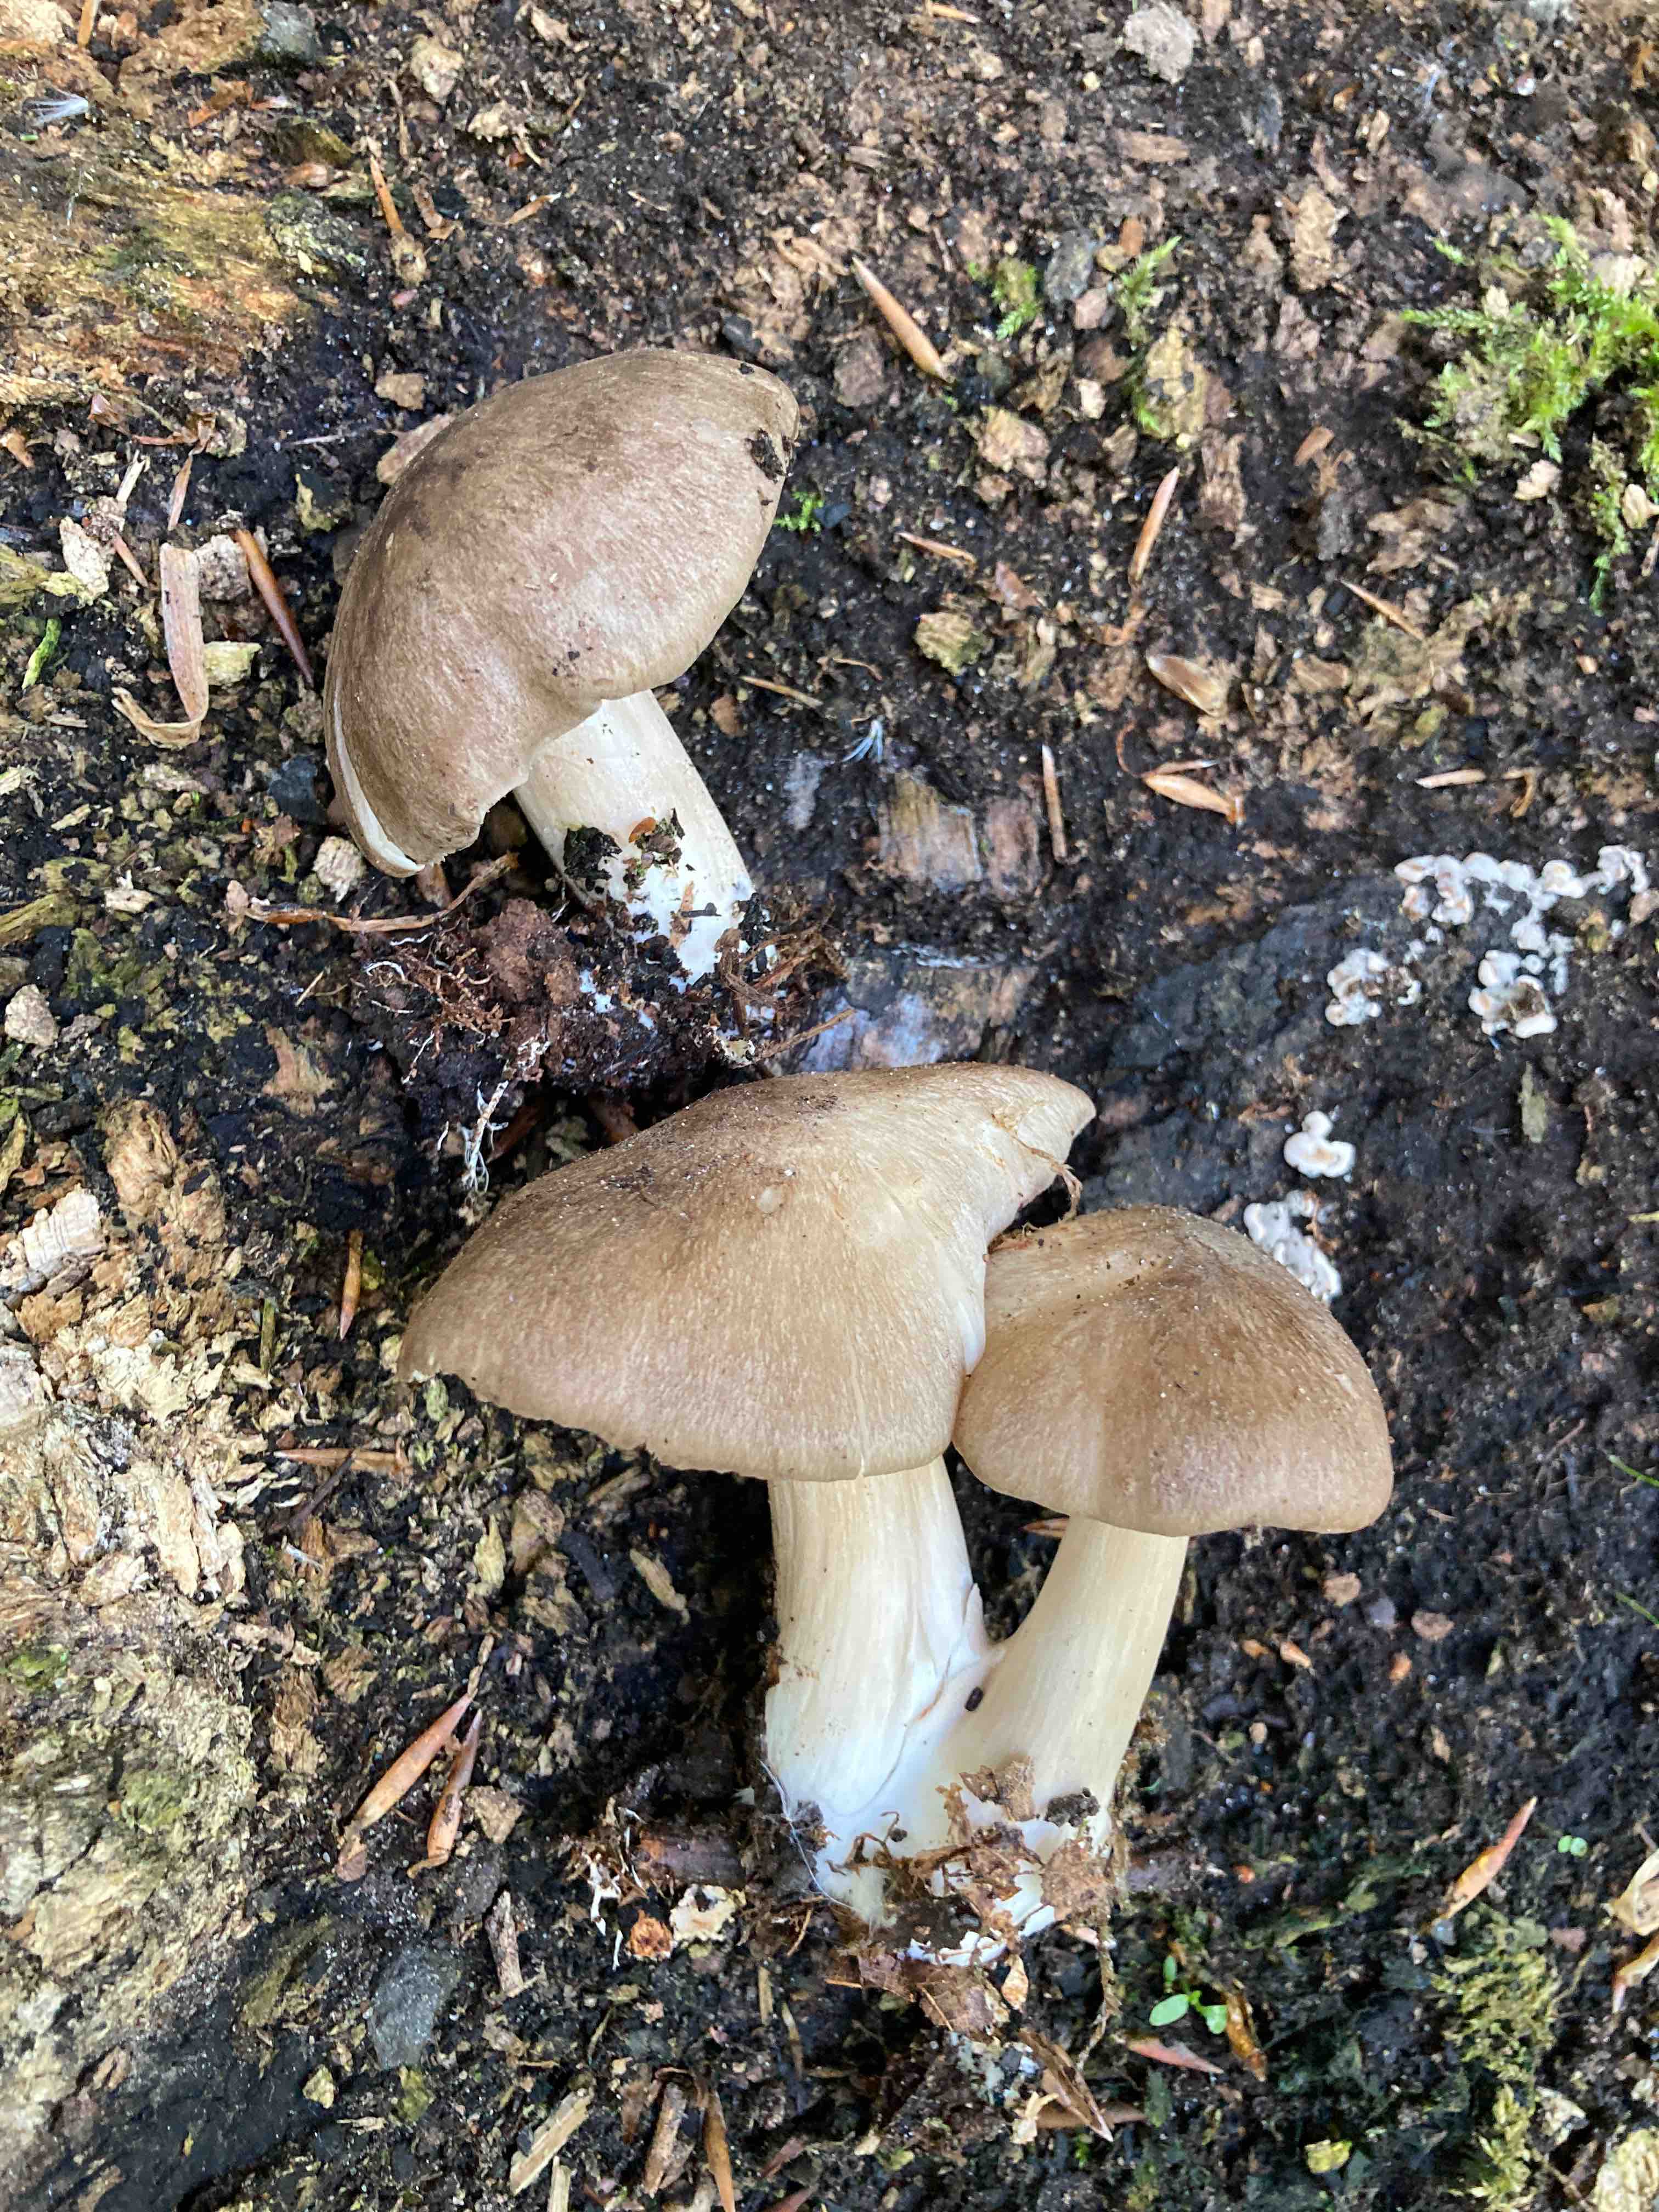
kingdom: Fungi
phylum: Basidiomycota
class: Agaricomycetes
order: Agaricales
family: Tricholomataceae
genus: Megacollybia
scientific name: Megacollybia platyphylla
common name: bredbladet væbnerhat
